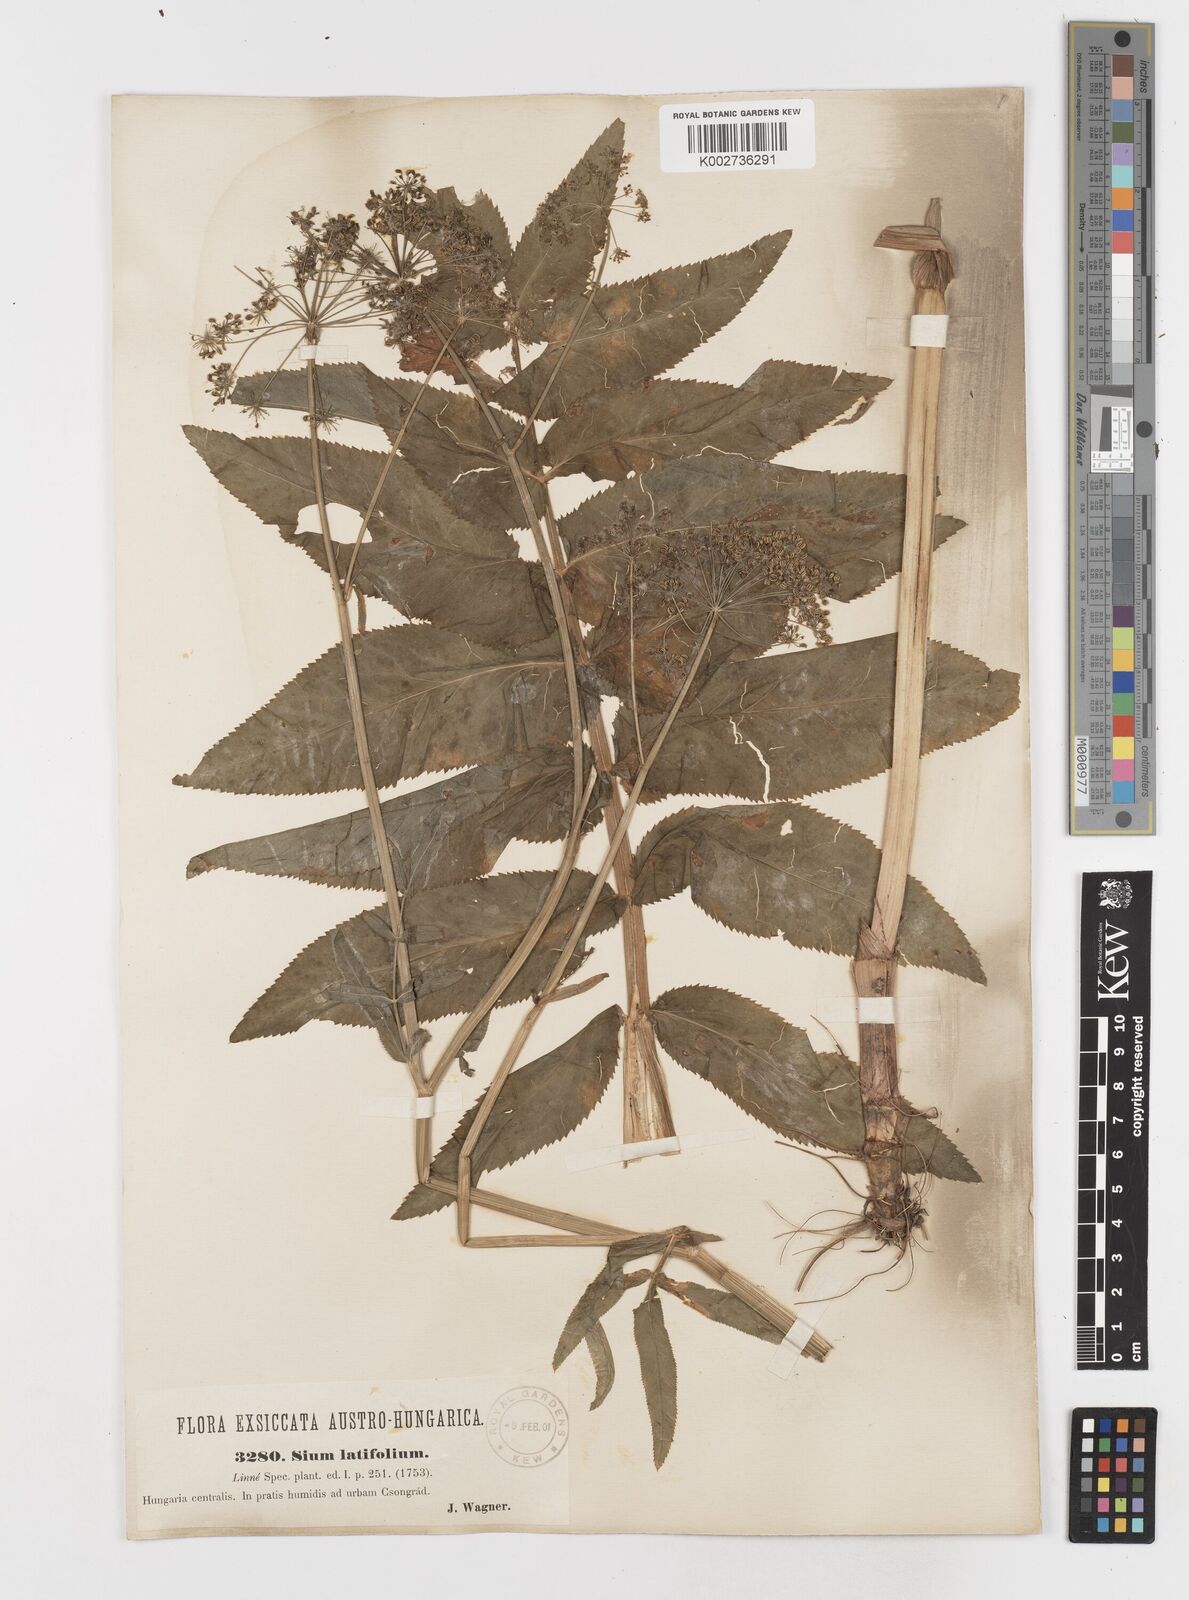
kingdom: Plantae
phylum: Tracheophyta
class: Magnoliopsida
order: Apiales
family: Apiaceae
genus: Sium
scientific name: Sium latifolium
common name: Greater water-parsnip
